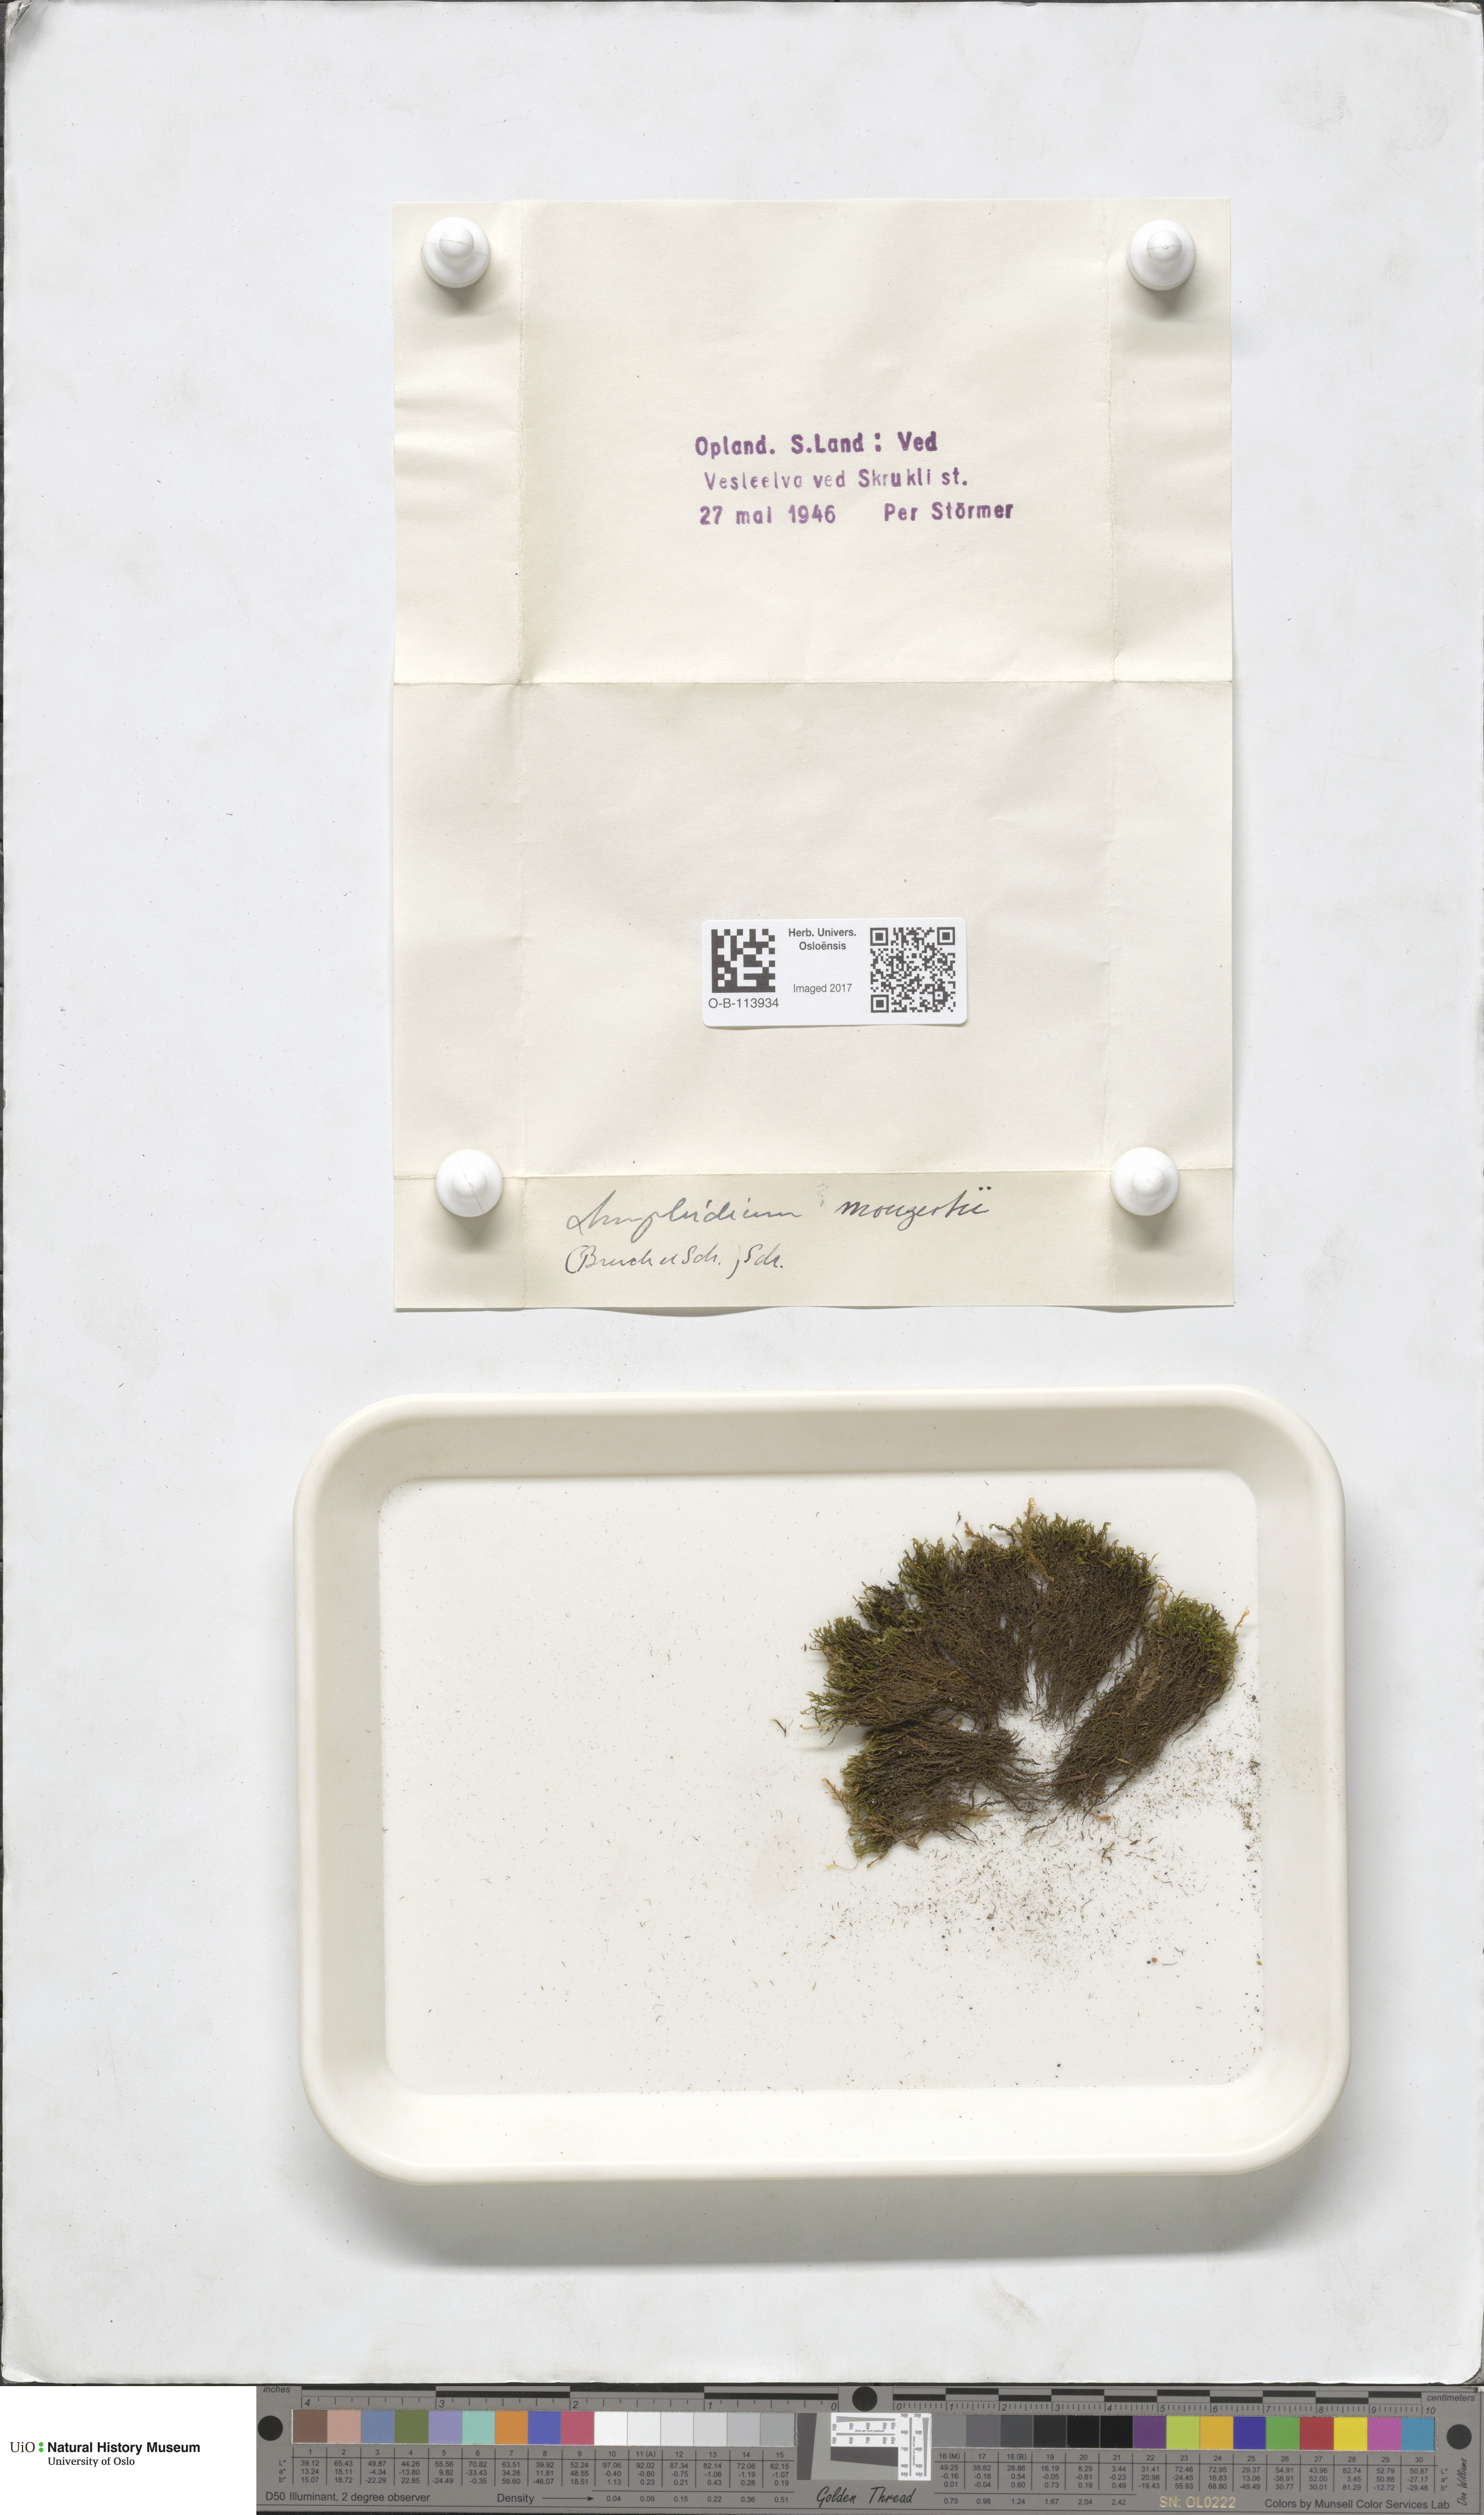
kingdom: Plantae
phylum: Bryophyta
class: Bryopsida
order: Dicranales
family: Amphidiaceae
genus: Amphidium
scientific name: Amphidium mougeotii
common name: Mougeot's yoke moss
